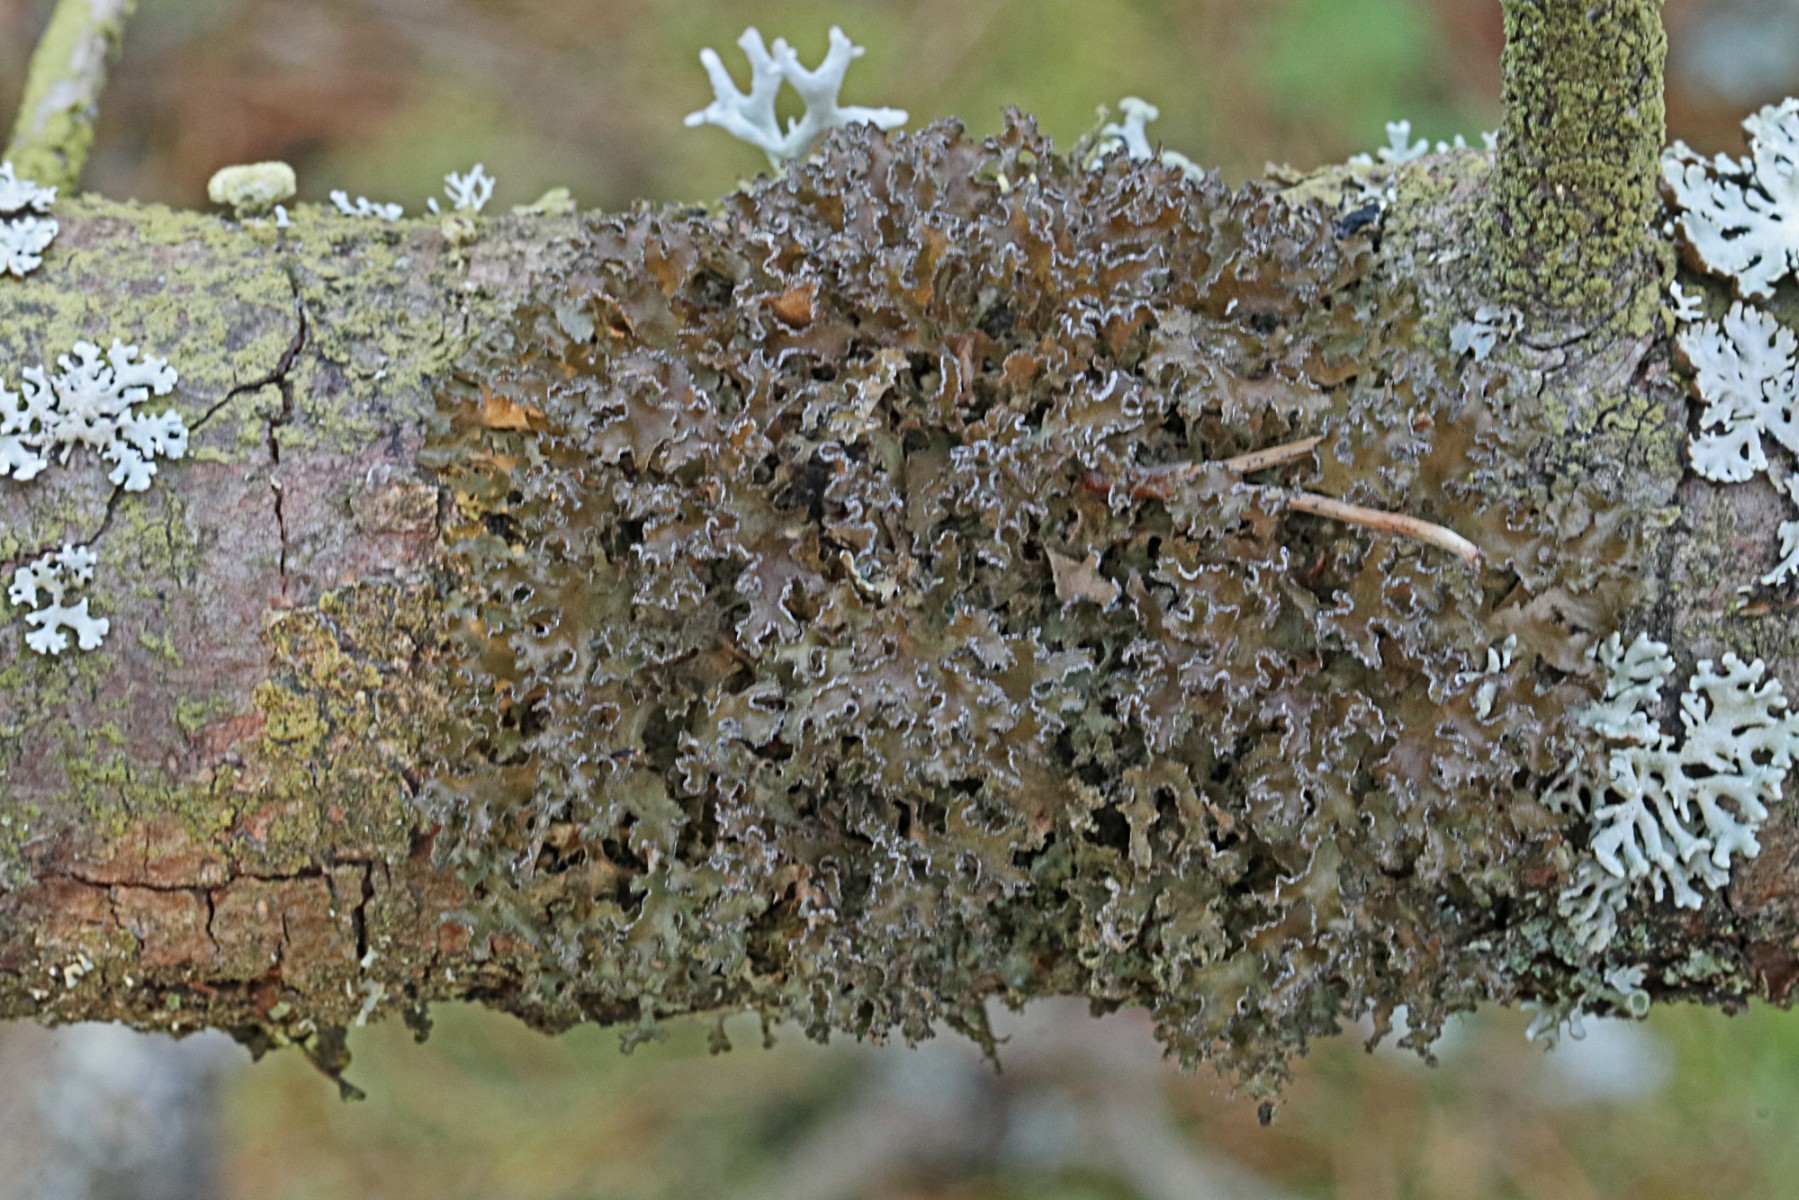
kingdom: Fungi
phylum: Ascomycota
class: Lecanoromycetes
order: Lecanorales
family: Parmeliaceae
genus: Nephromopsis
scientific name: Nephromopsis chlorophylla
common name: olivenbrun kruslav
